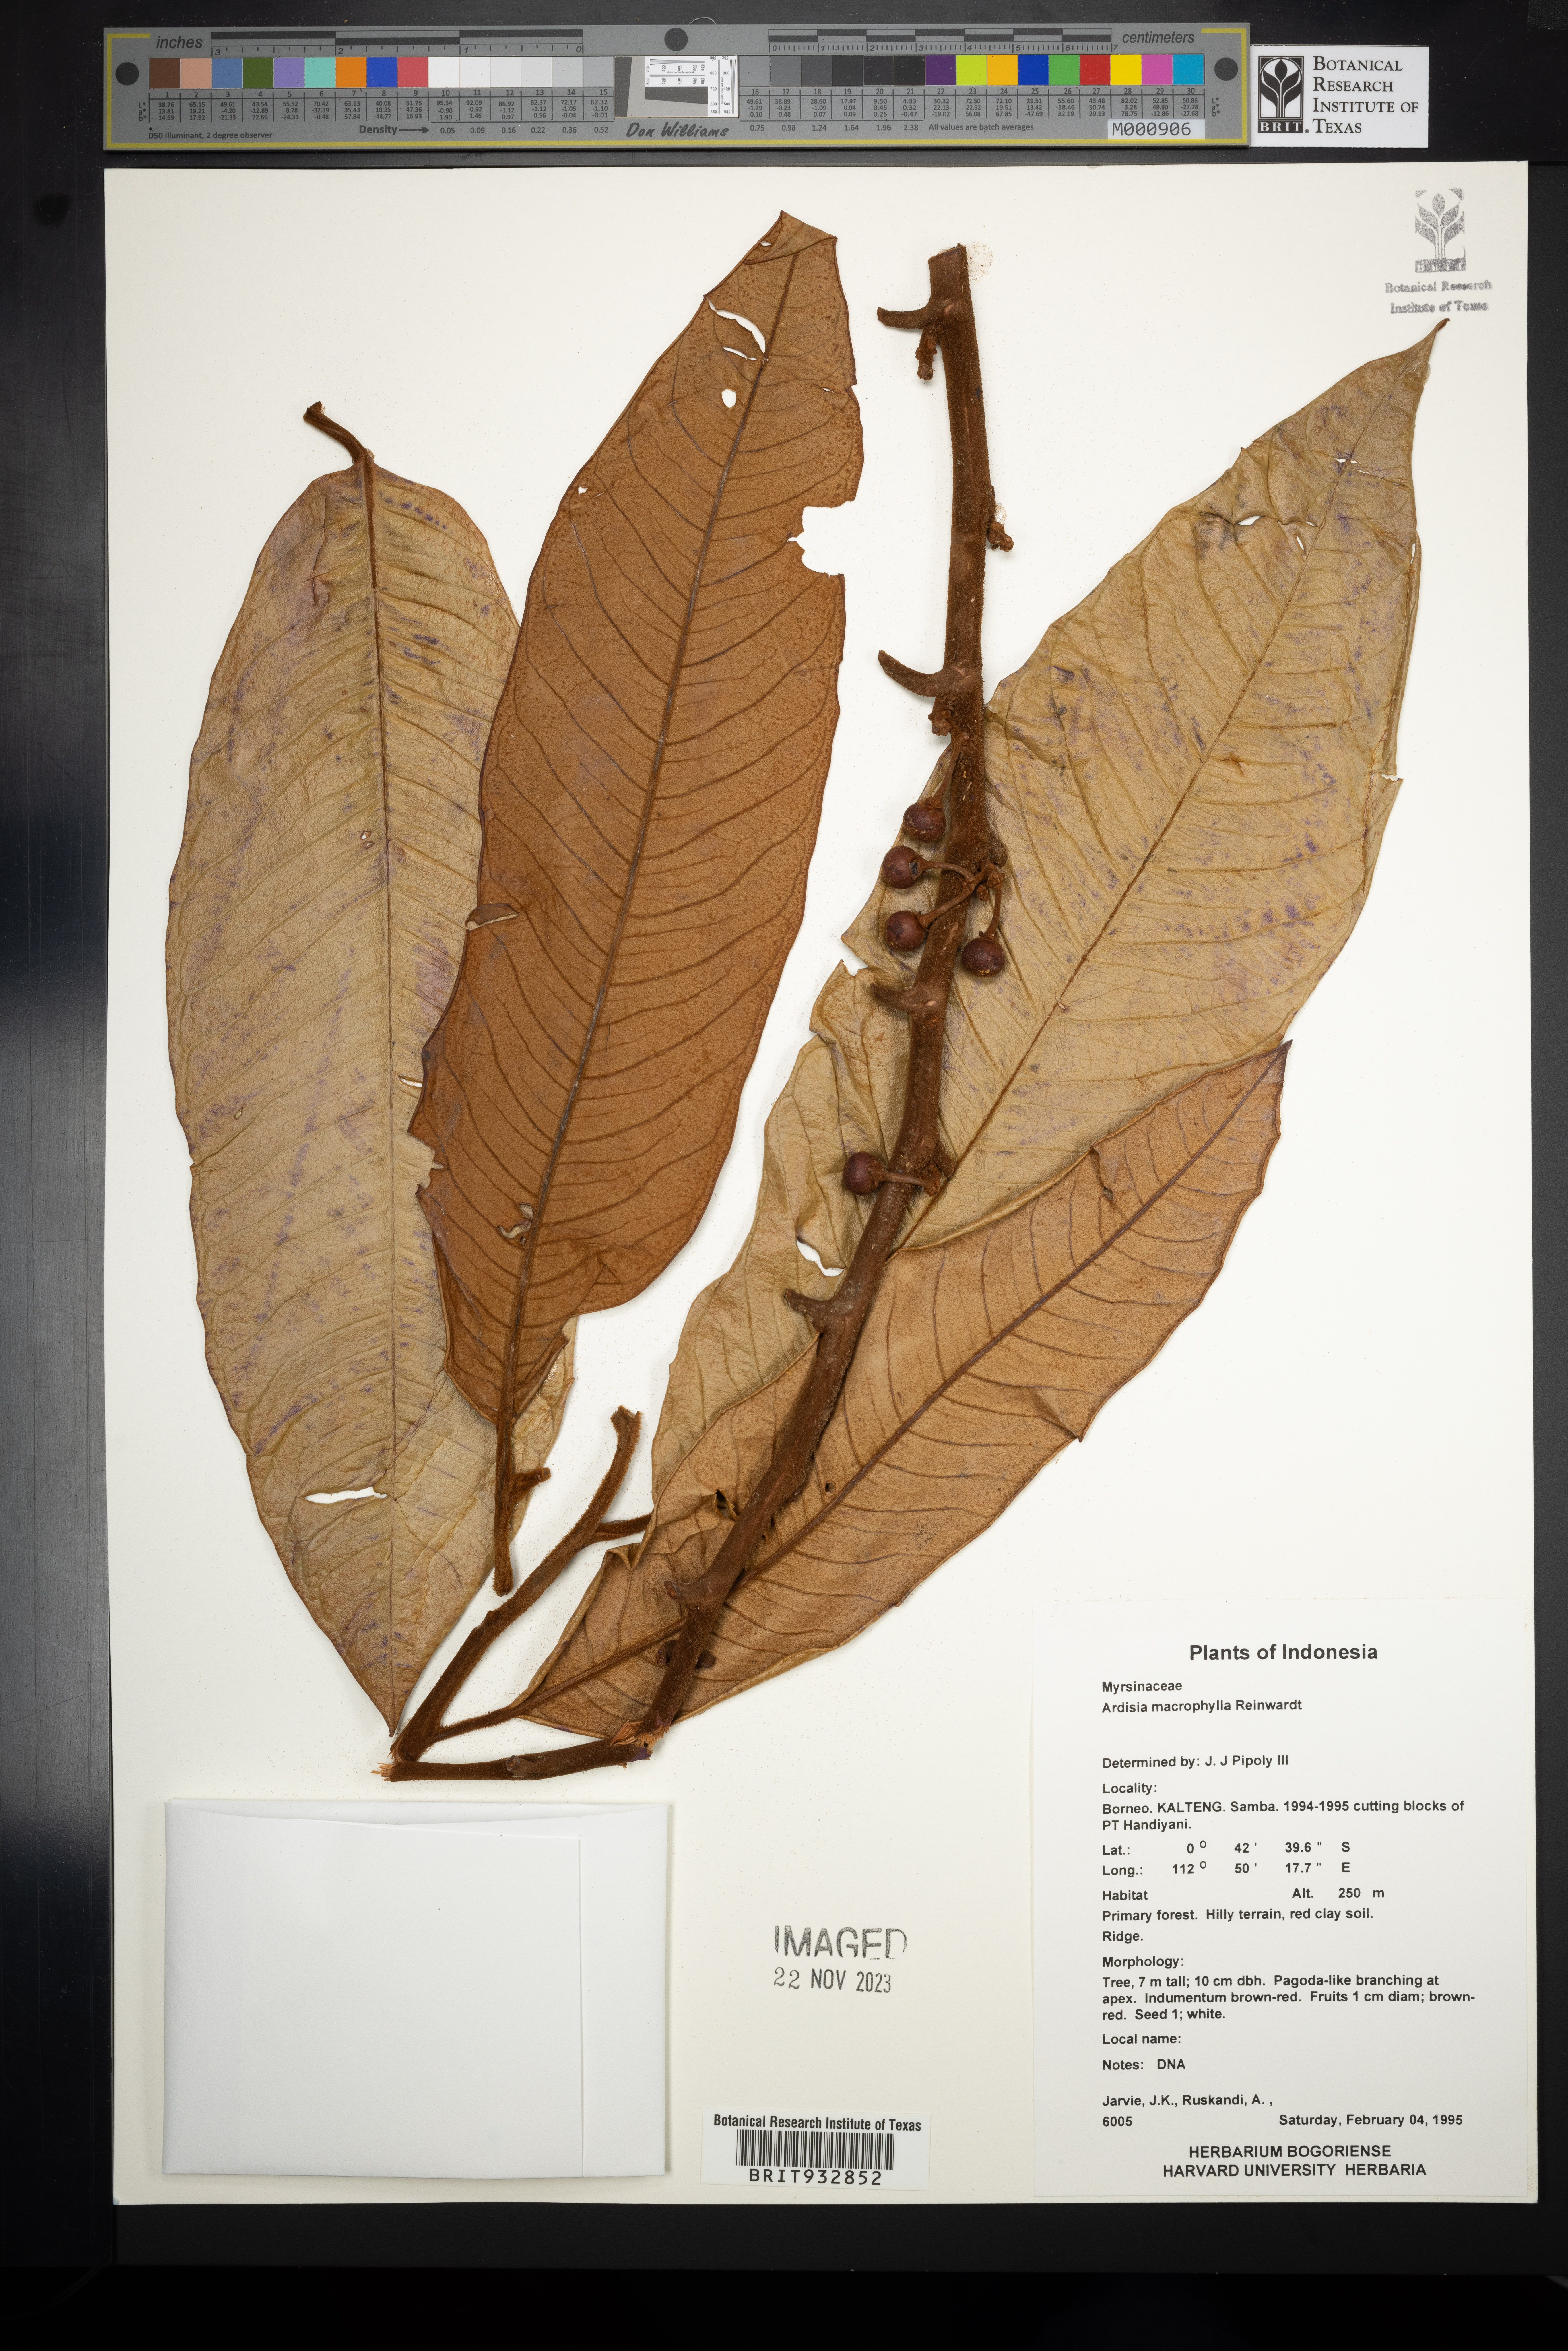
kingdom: Plantae
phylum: Tracheophyta
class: Magnoliopsida
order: Ericales
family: Primulaceae
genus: Ardisia
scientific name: Ardisia
